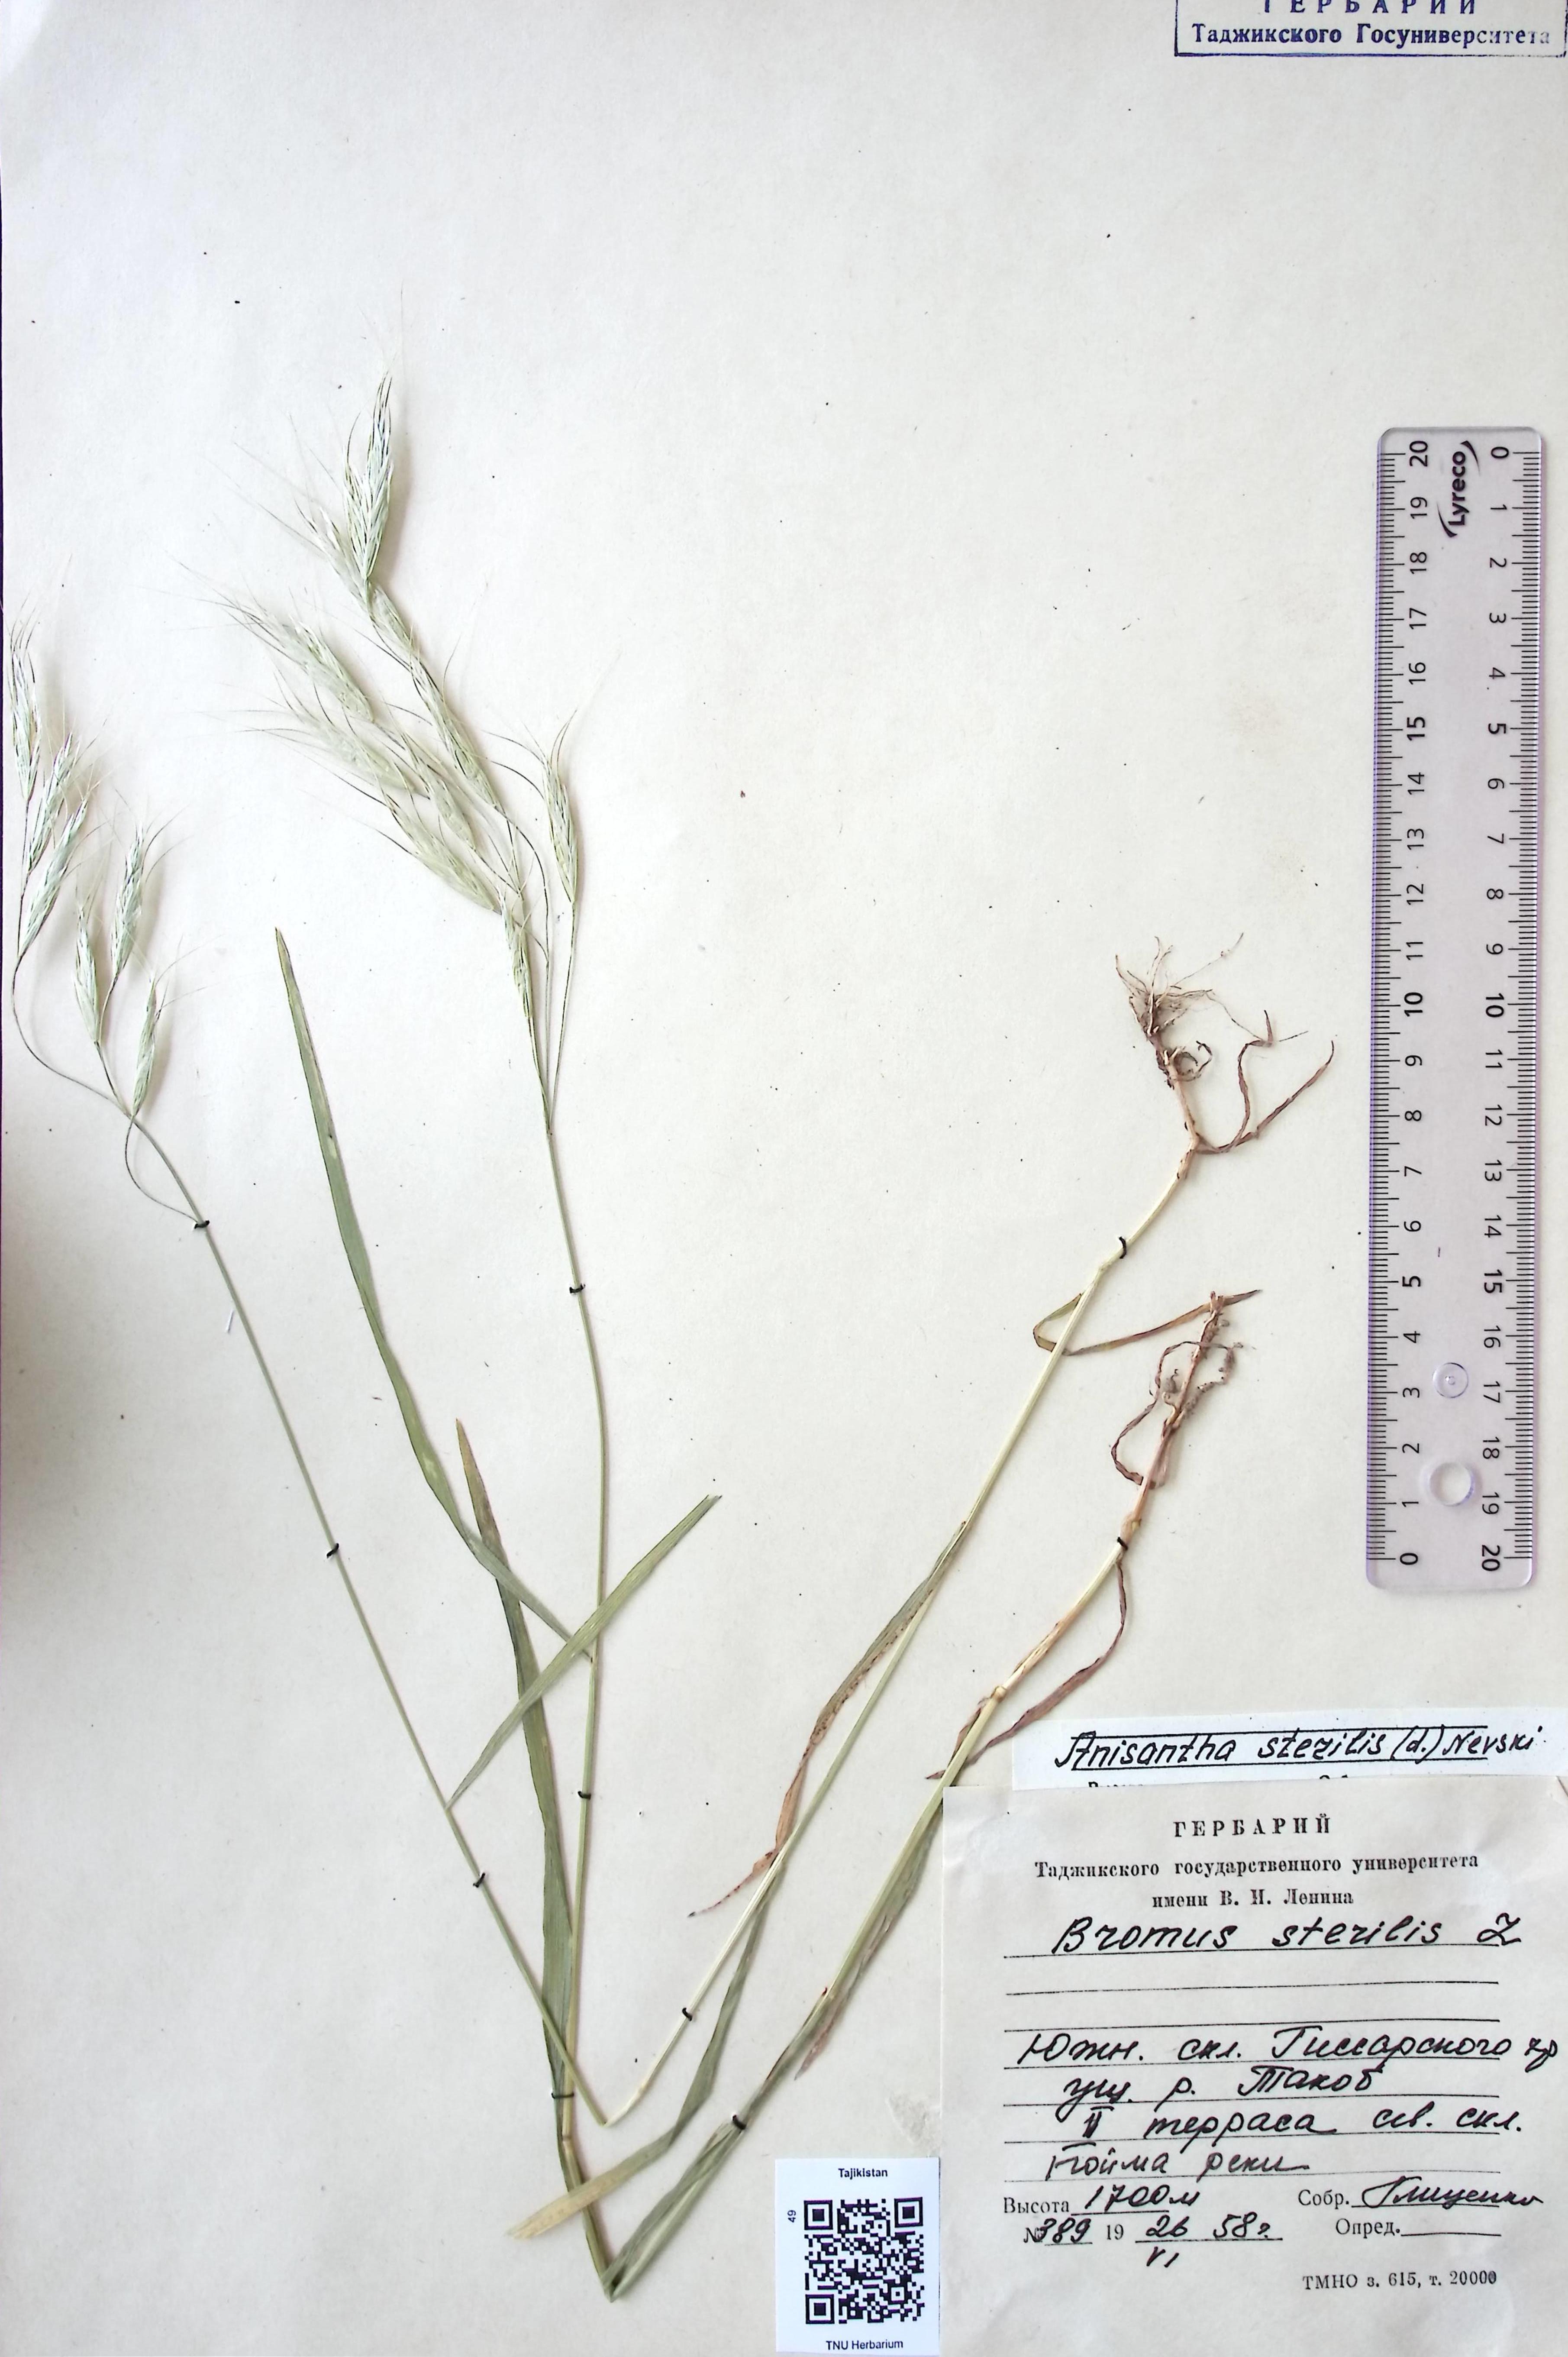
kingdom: Plantae
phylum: Tracheophyta
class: Liliopsida
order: Poales
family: Poaceae
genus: Bromus
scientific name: Bromus sterilis
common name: Poverty brome
